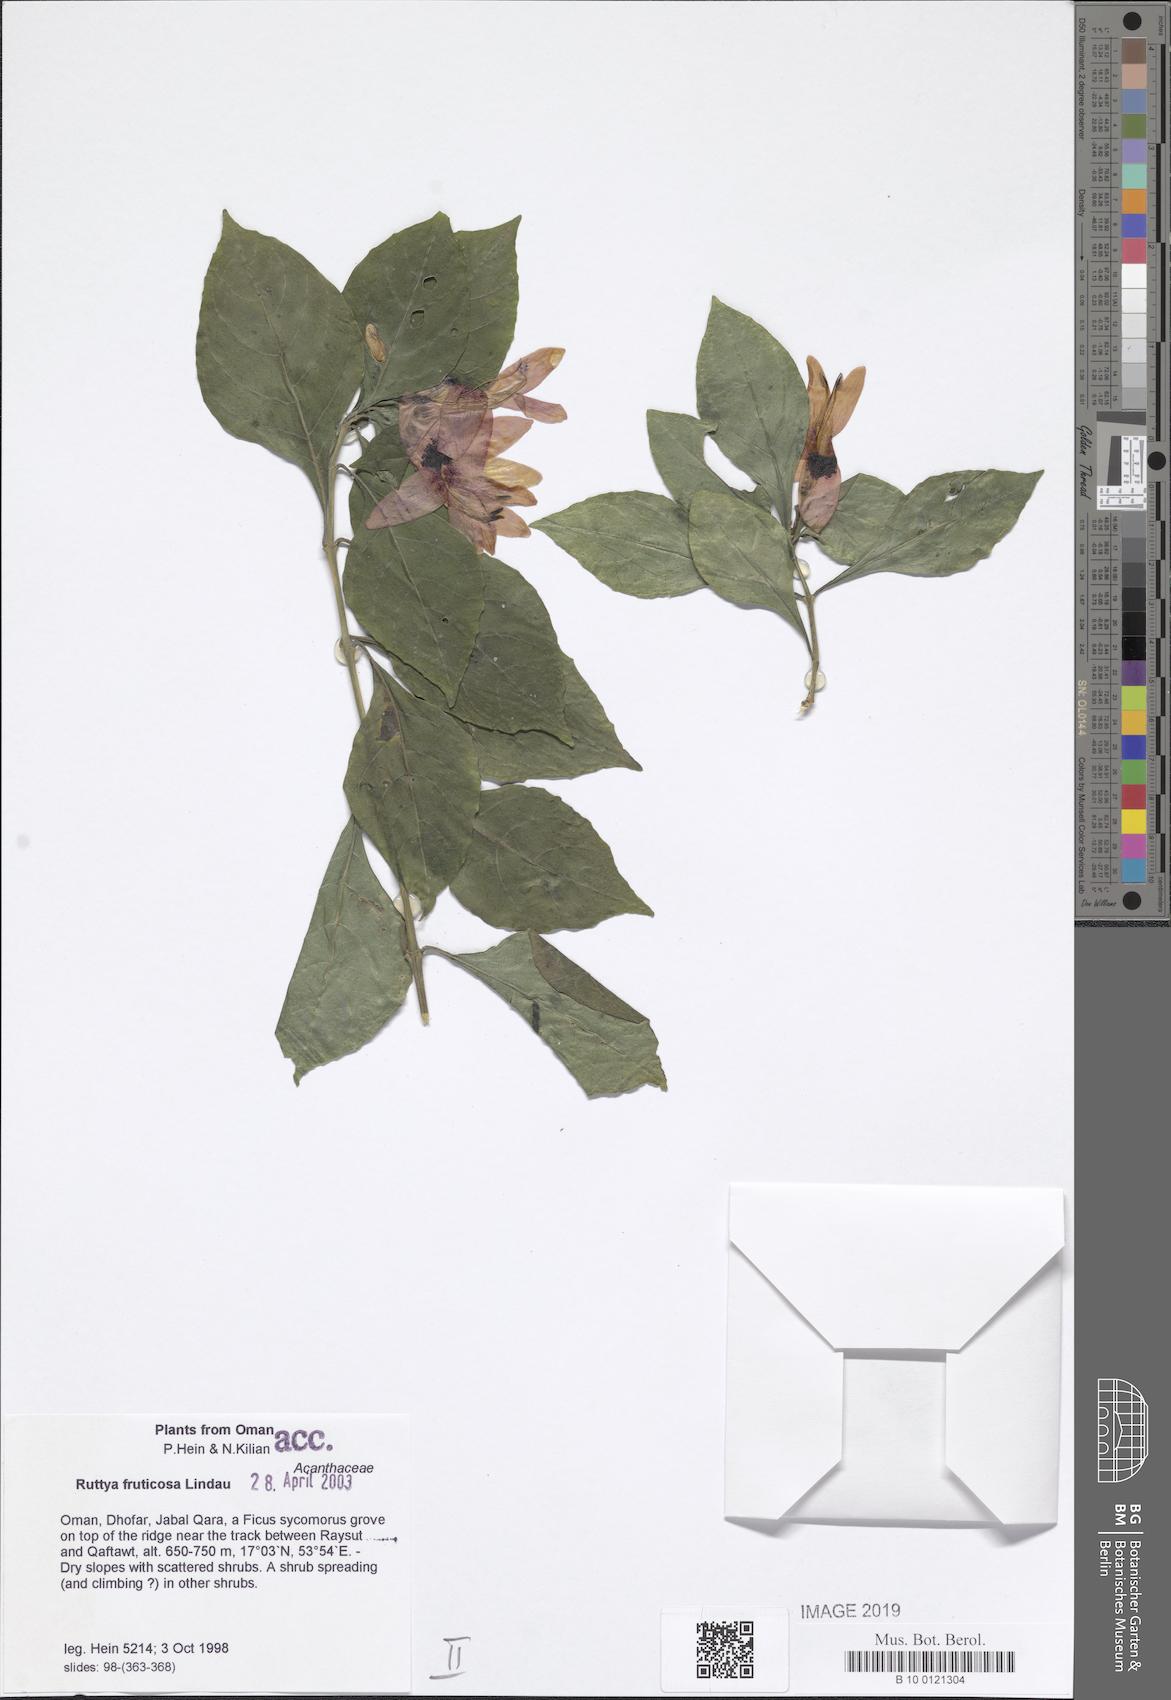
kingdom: Plantae
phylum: Tracheophyta
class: Magnoliopsida
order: Lamiales
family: Acanthaceae
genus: Ruttya
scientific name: Ruttya fruticosa
